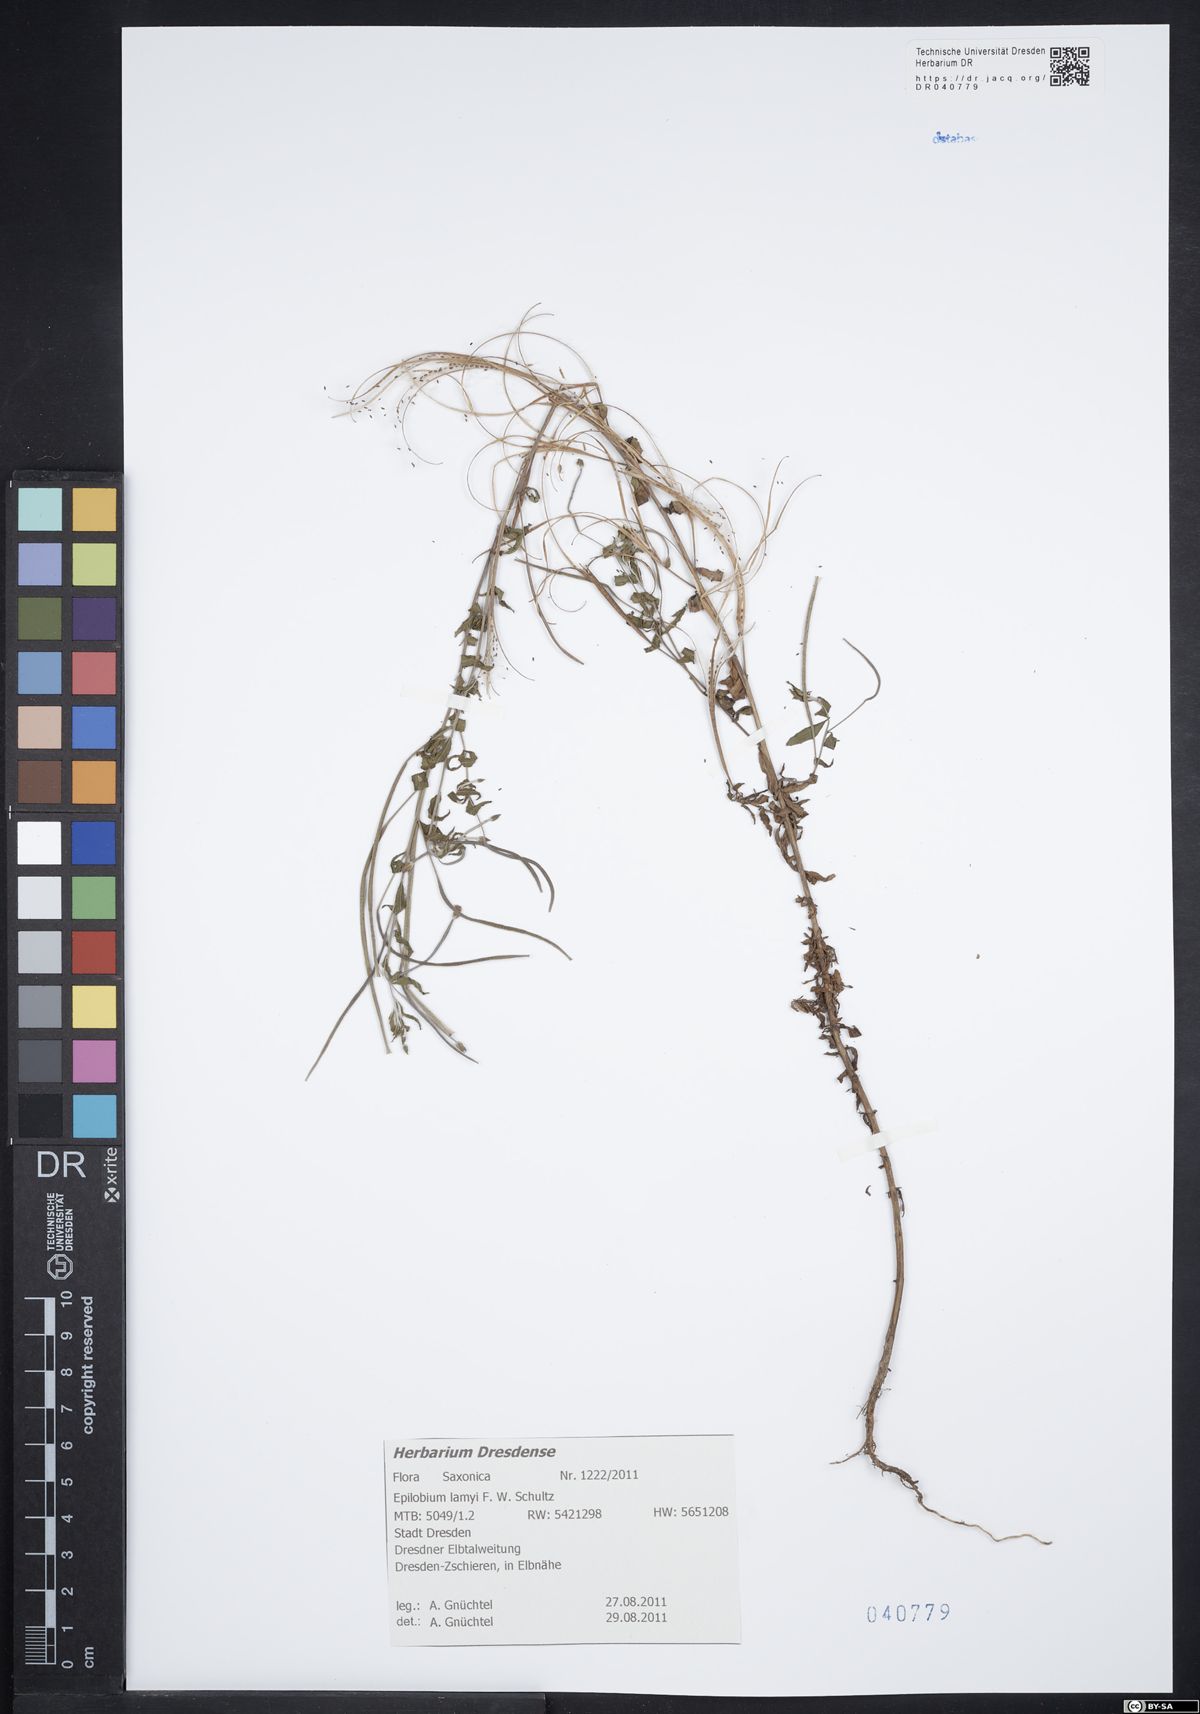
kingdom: Plantae
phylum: Tracheophyta
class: Magnoliopsida
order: Myrtales
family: Onagraceae
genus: Epilobium
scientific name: Epilobium lamyi
